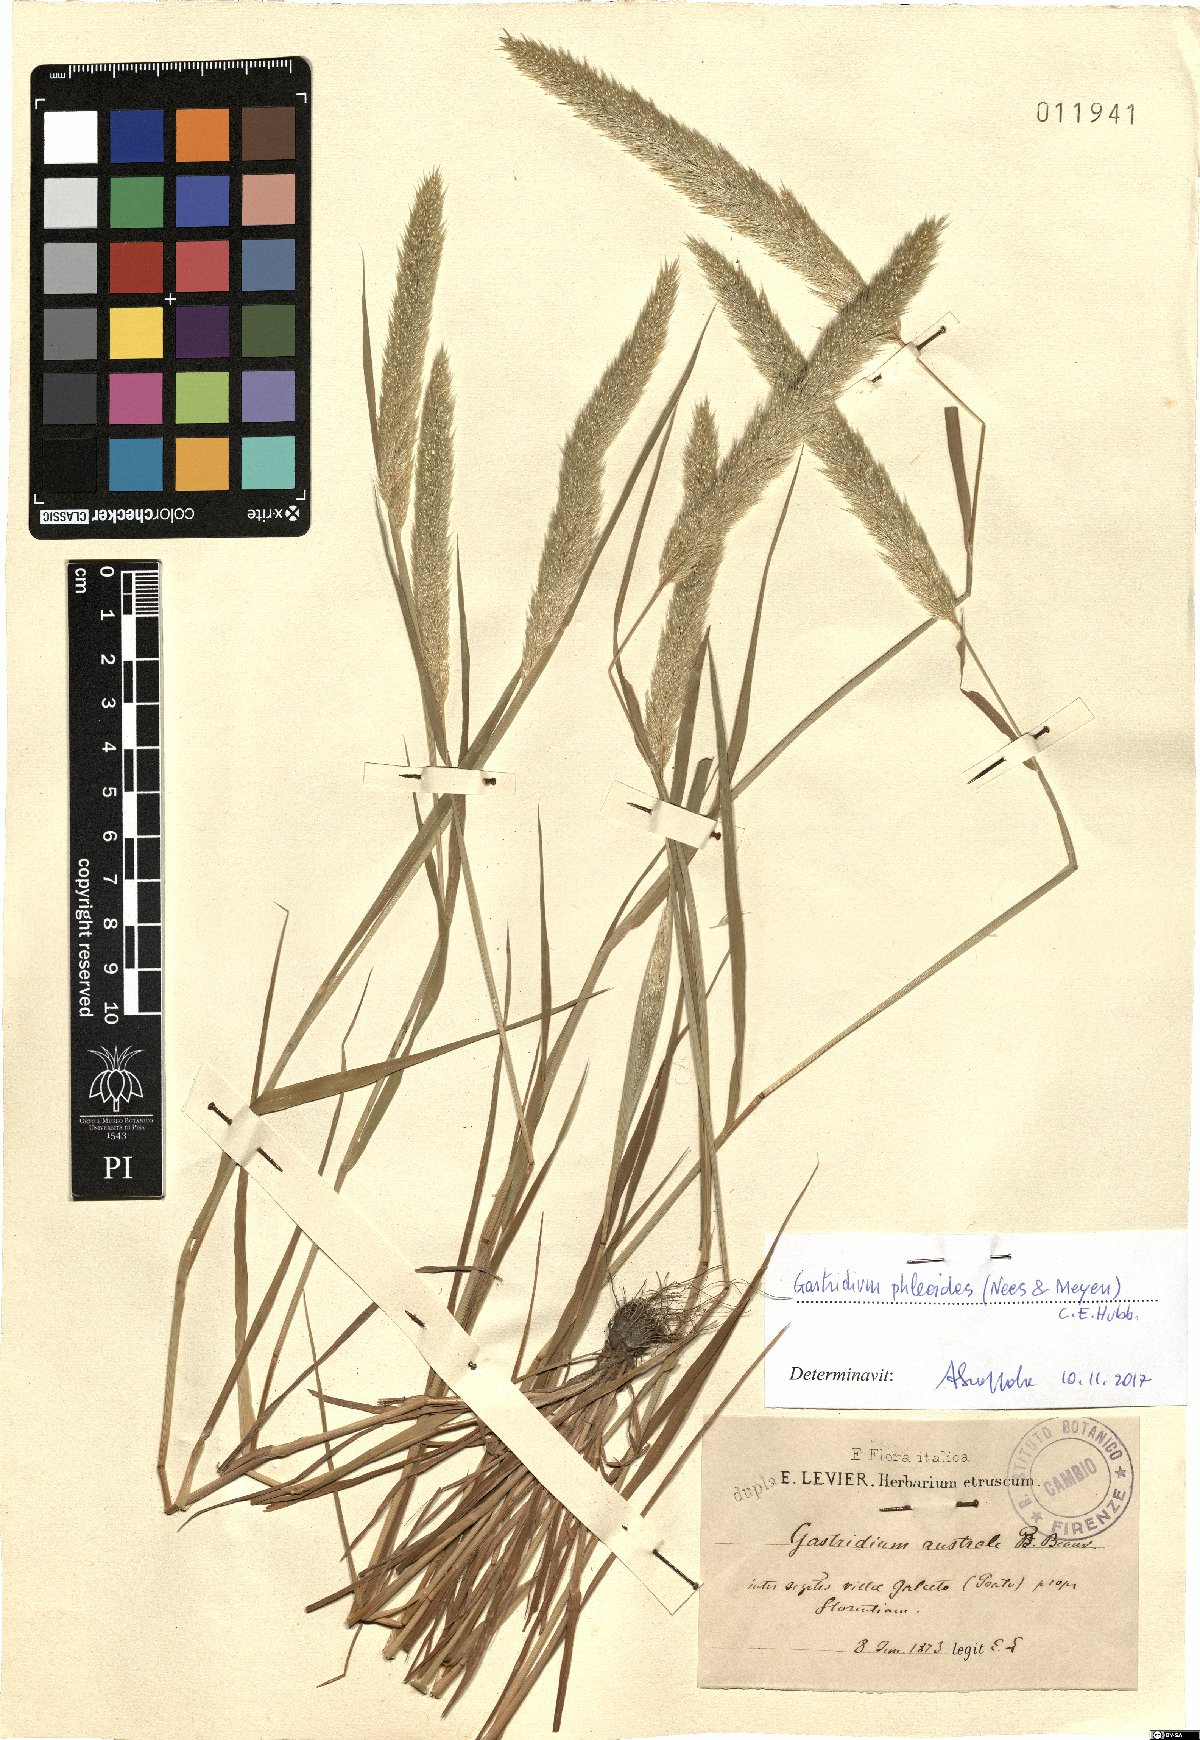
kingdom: Plantae
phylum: Tracheophyta
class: Liliopsida
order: Poales
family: Poaceae
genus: Gastridium
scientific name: Gastridium phleoides
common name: Nit grass
